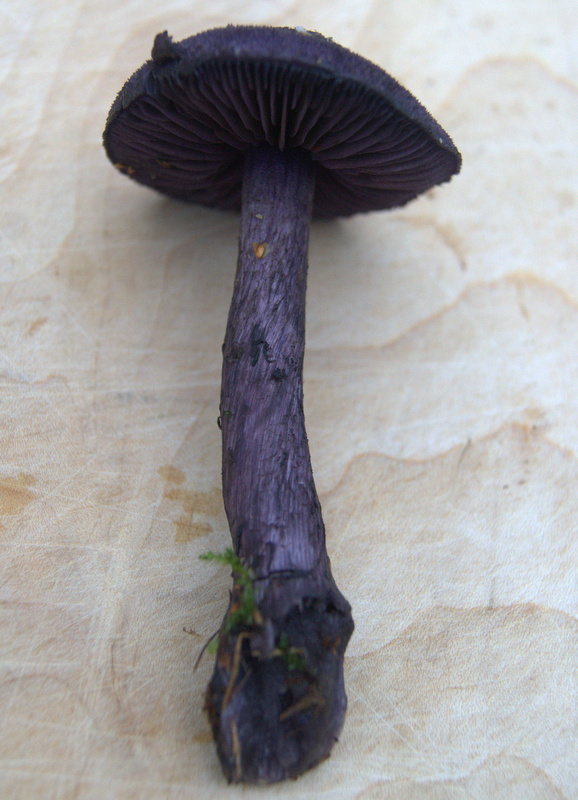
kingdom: Fungi
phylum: Basidiomycota
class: Agaricomycetes
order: Agaricales
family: Cortinariaceae
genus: Cortinarius
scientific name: Cortinarius violaceus
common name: mørkviolet slørhat
